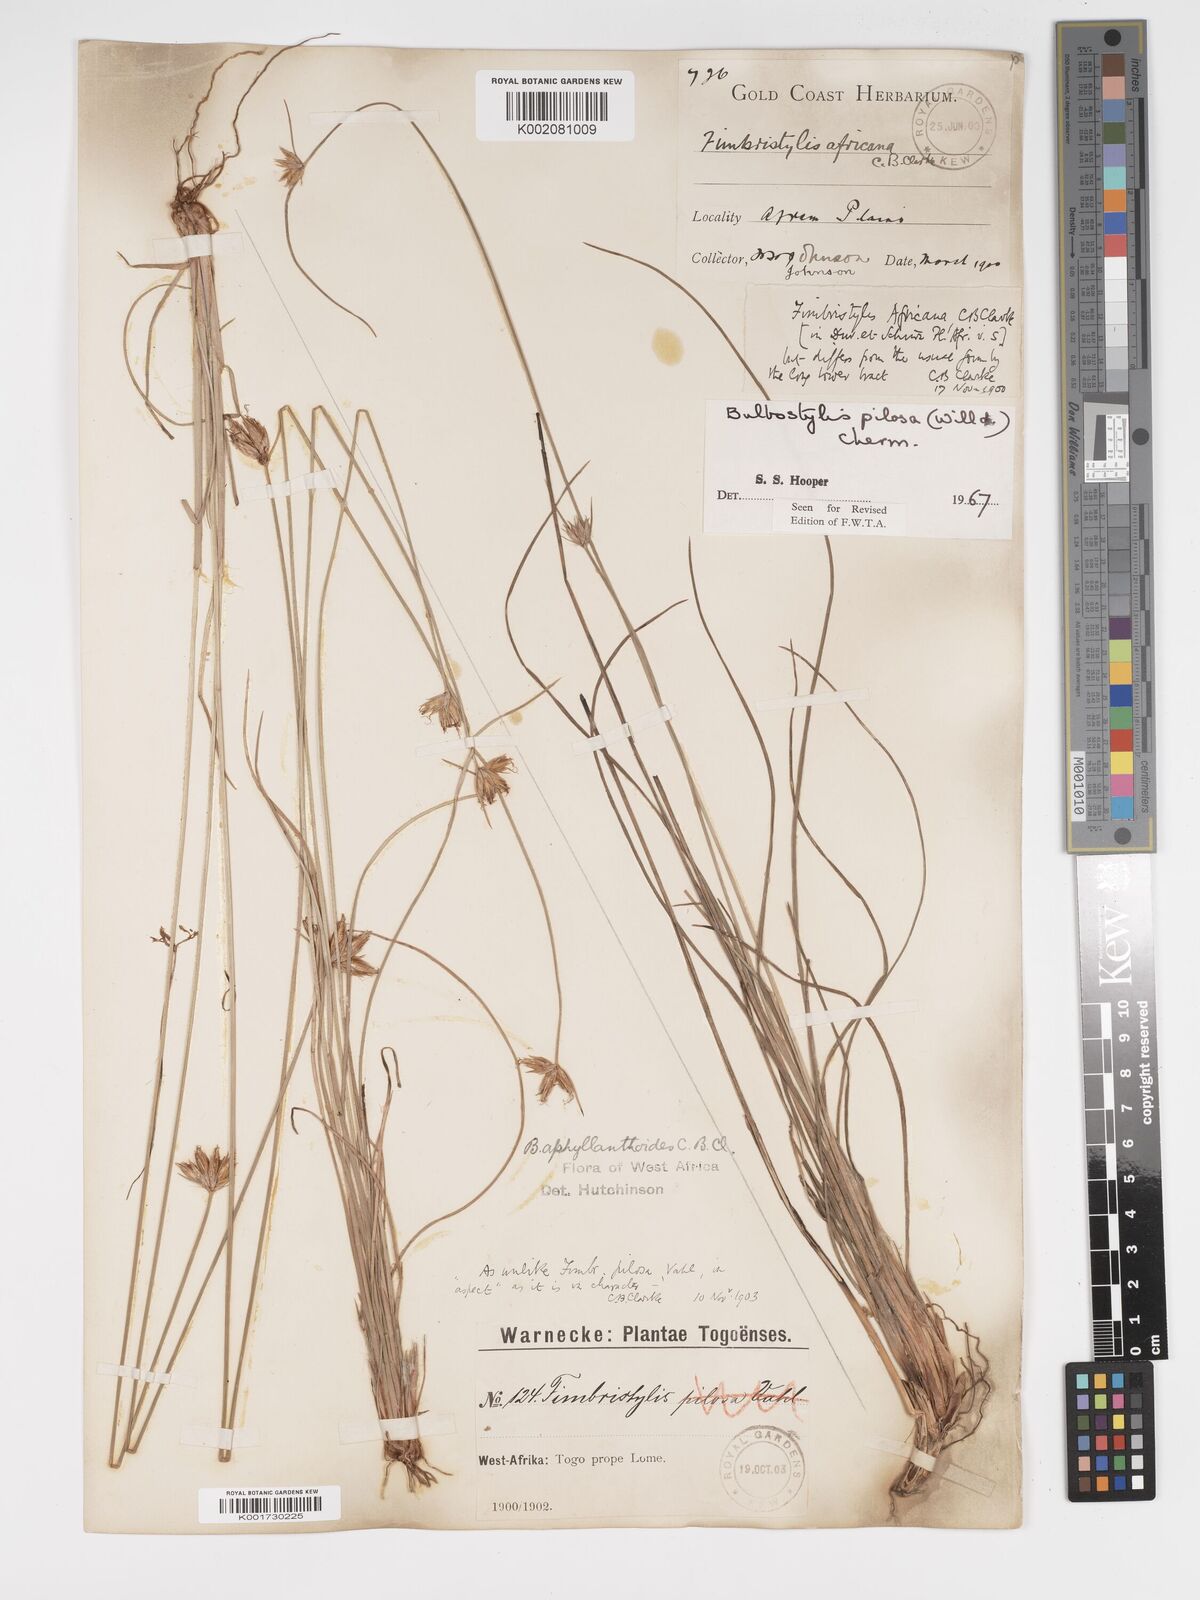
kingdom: Plantae
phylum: Tracheophyta
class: Liliopsida
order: Poales
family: Cyperaceae
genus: Bulbostylis
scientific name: Bulbostylis pilosa
